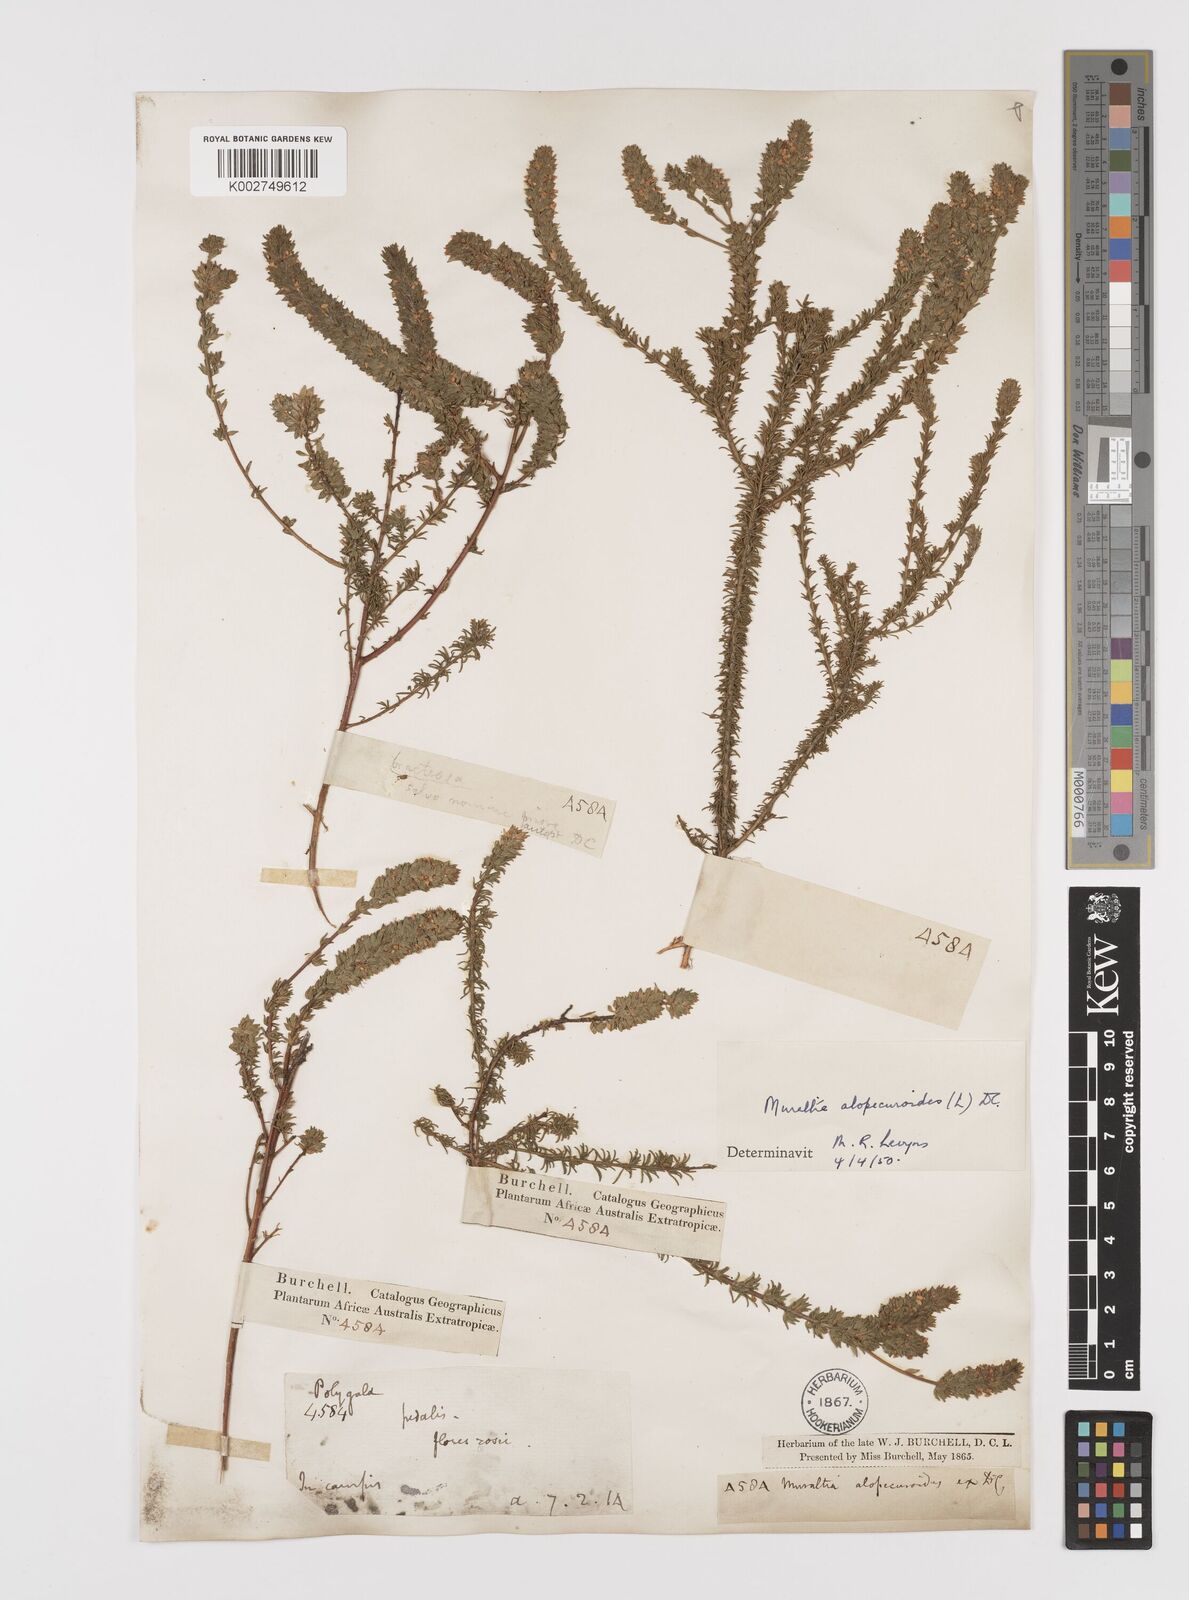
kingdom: Plantae
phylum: Tracheophyta
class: Magnoliopsida
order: Fabales
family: Polygalaceae
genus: Muraltia
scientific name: Muraltia alopecuroides
